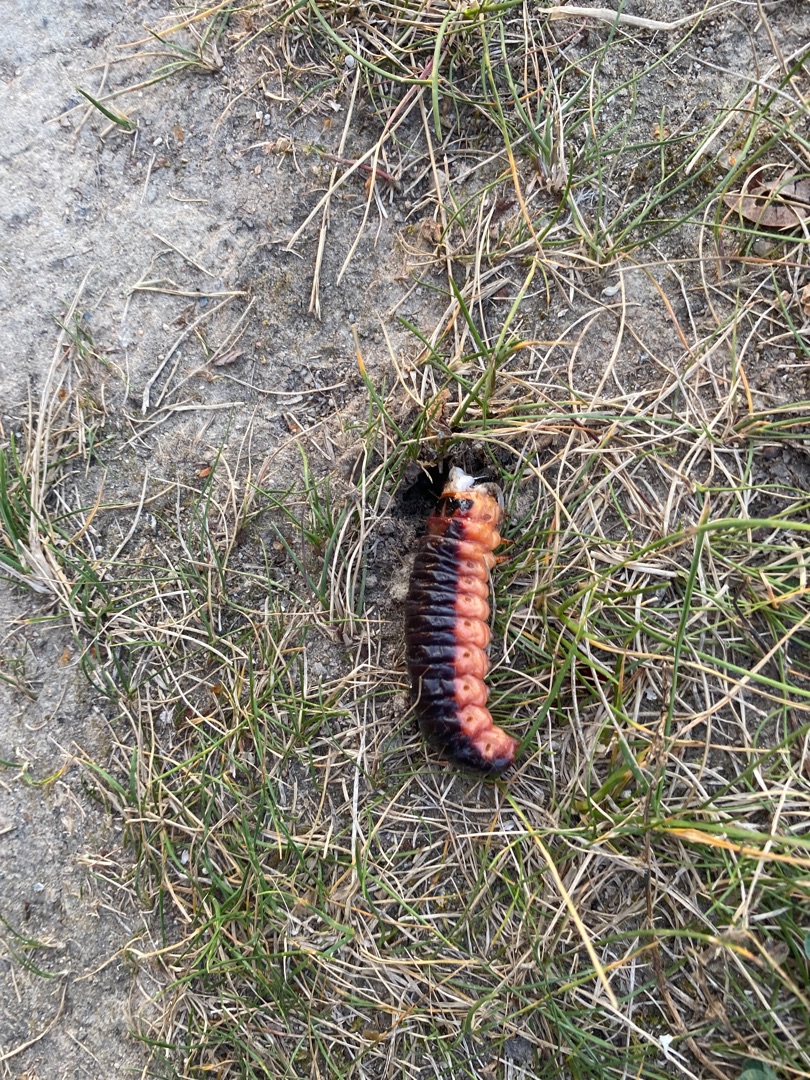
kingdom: Animalia
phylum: Arthropoda
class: Insecta
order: Lepidoptera
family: Cossidae
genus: Cossus
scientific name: Cossus cossus
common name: Pileborer
